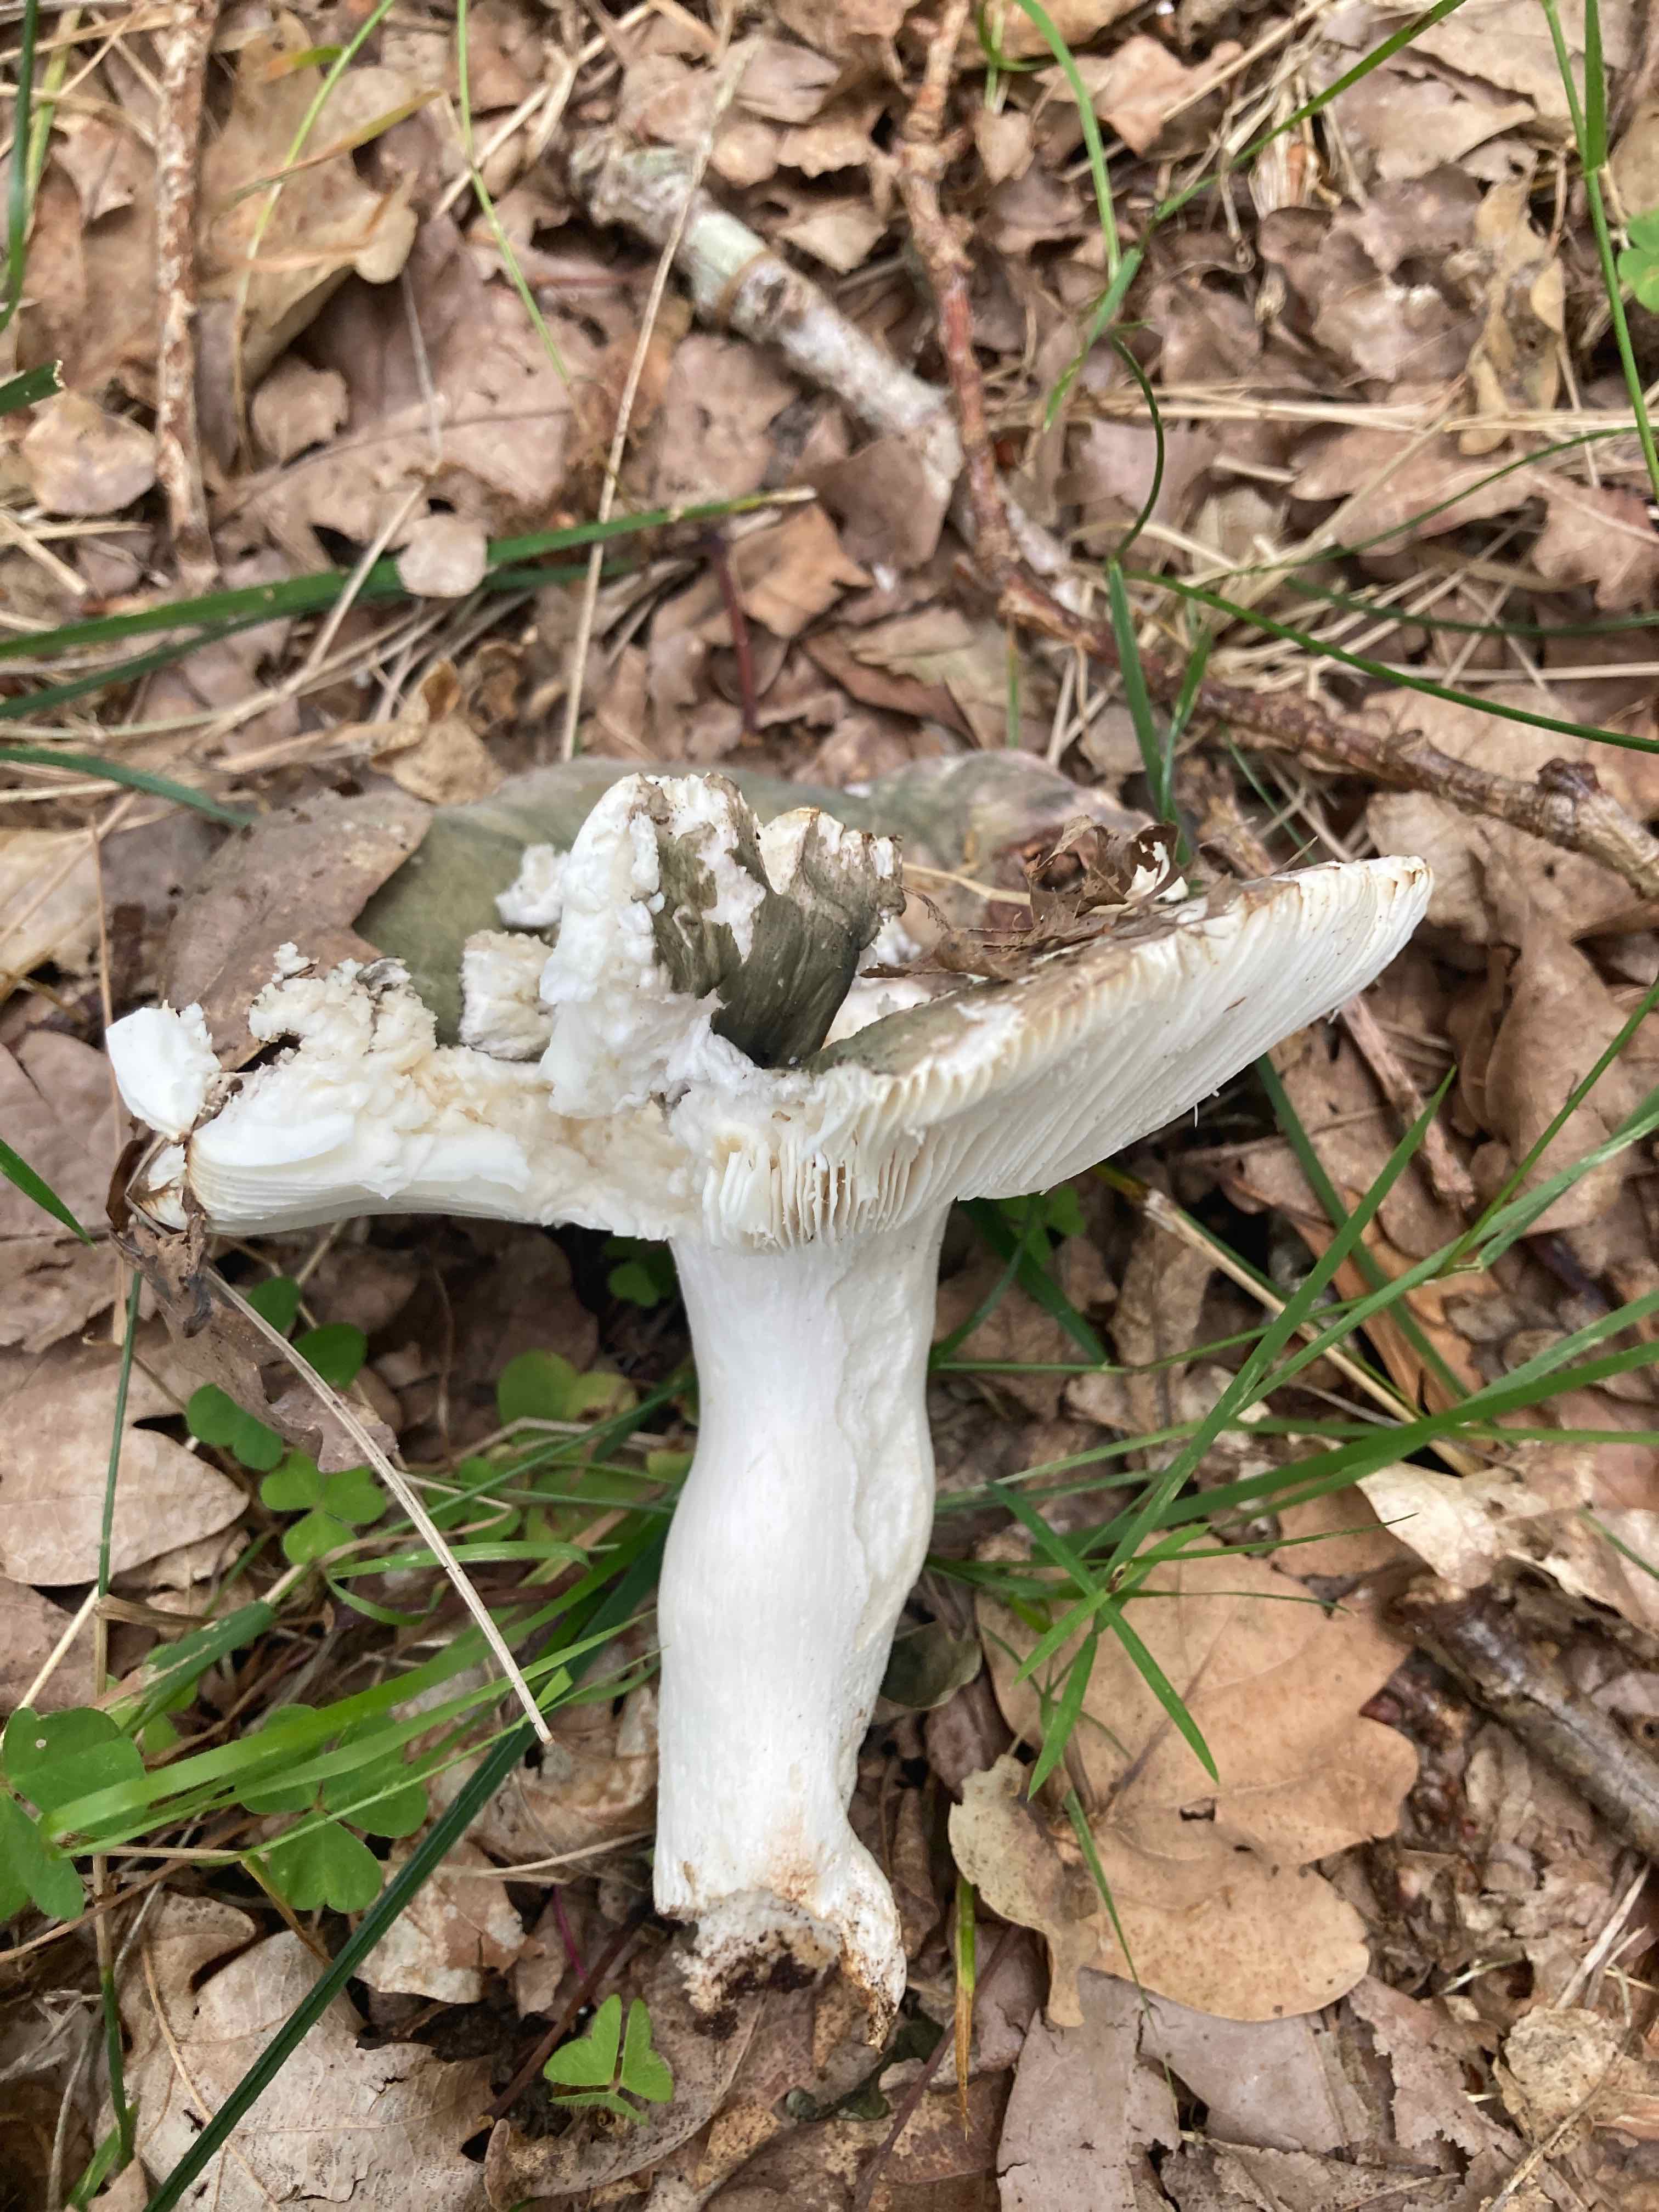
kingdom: Fungi
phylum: Basidiomycota
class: Agaricomycetes
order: Russulales
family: Russulaceae
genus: Russula
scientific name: Russula cyanoxantha
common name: broget skørhat
